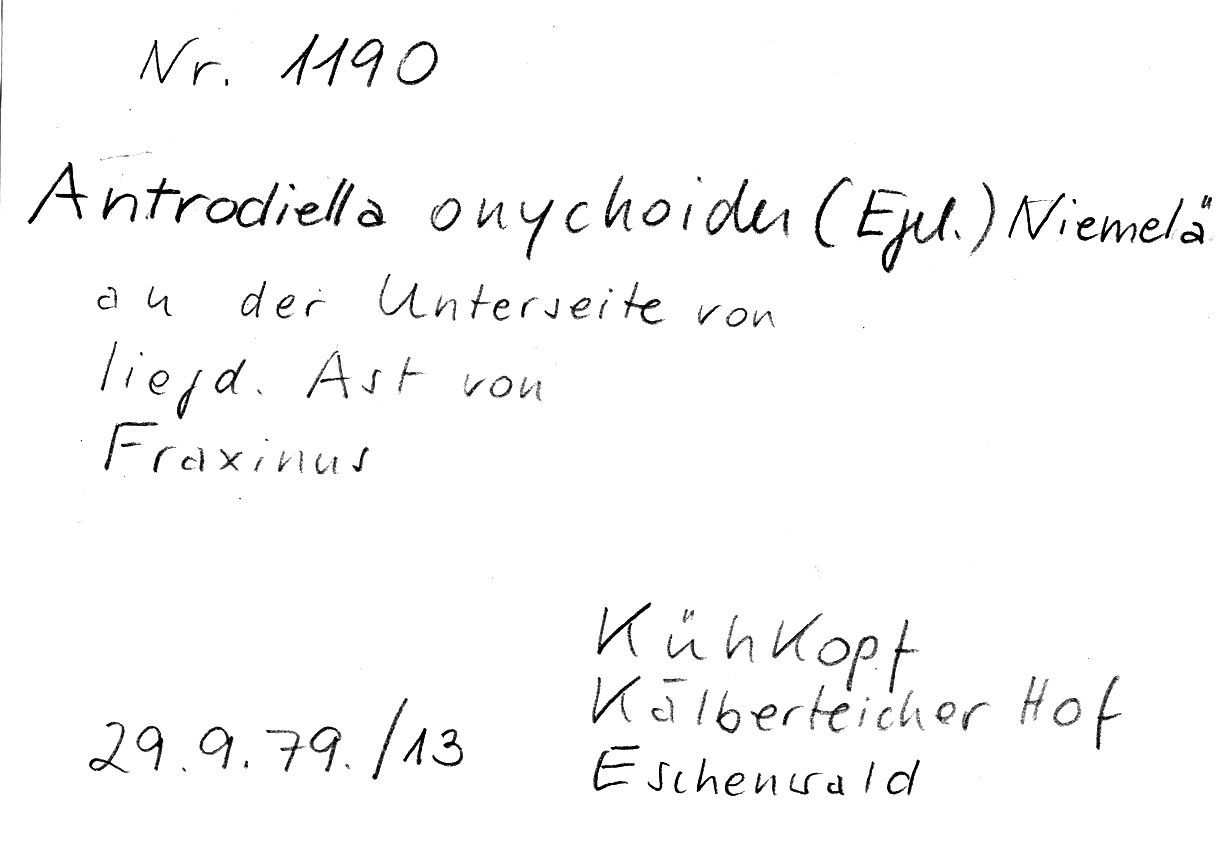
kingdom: Plantae
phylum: Tracheophyta
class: Magnoliopsida
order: Lamiales
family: Oleaceae
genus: Fraxinus
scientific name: Fraxinus
